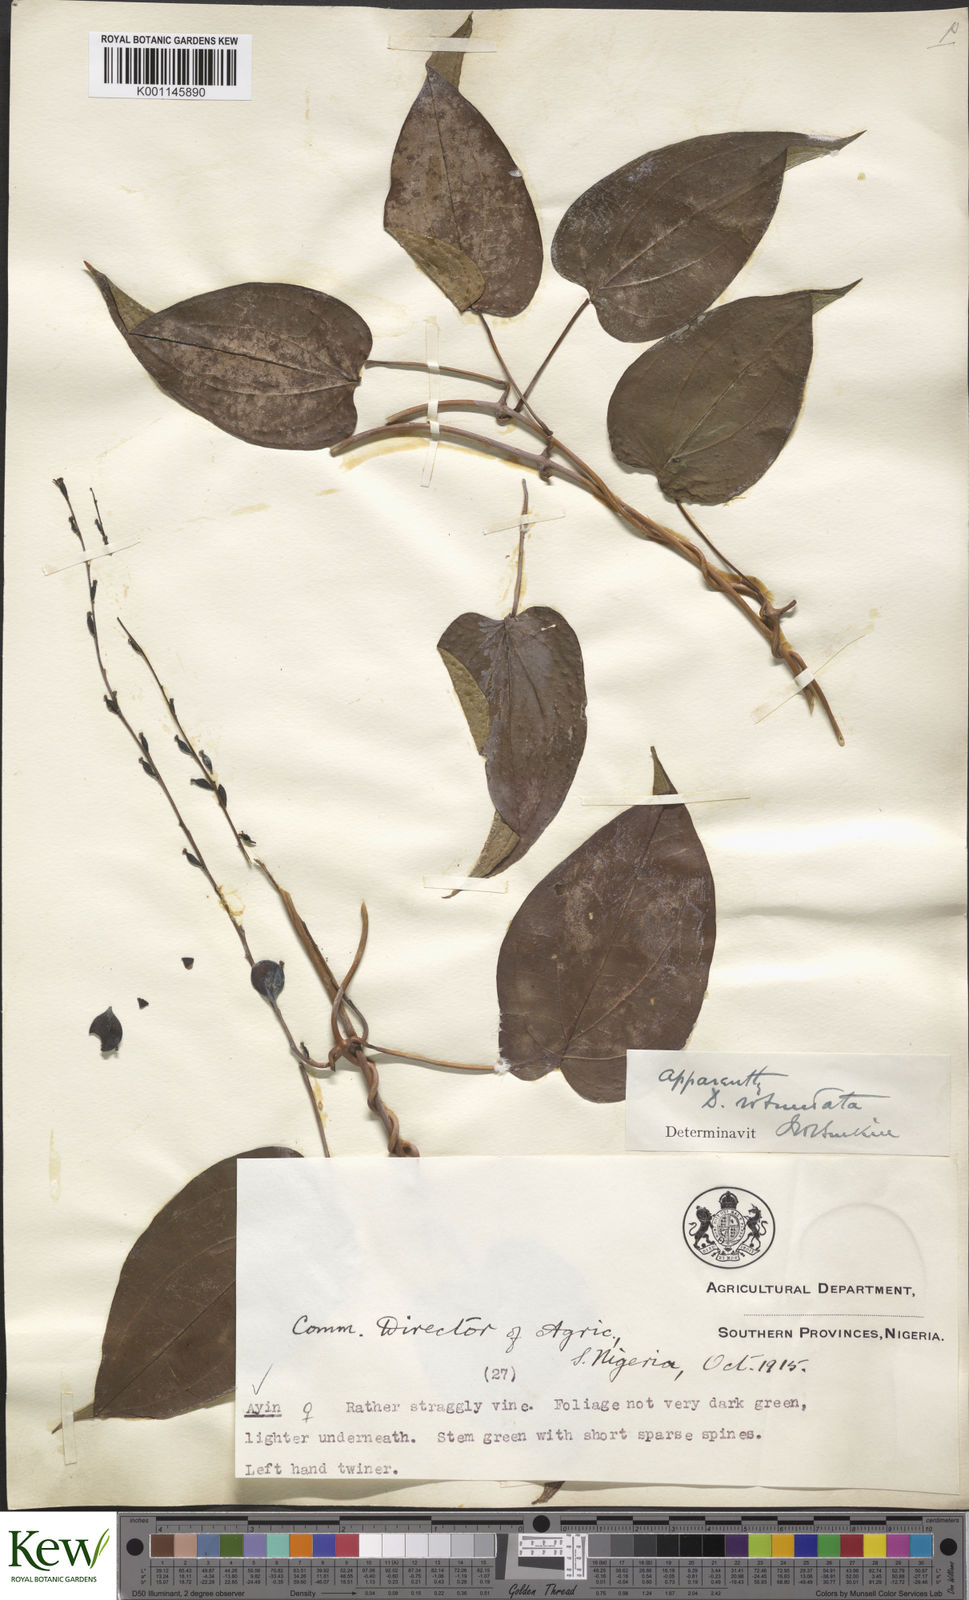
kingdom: Plantae
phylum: Tracheophyta
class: Liliopsida
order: Dioscoreales
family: Dioscoreaceae
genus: Dioscorea
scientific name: Dioscorea cayenensis
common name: Attoto yam
